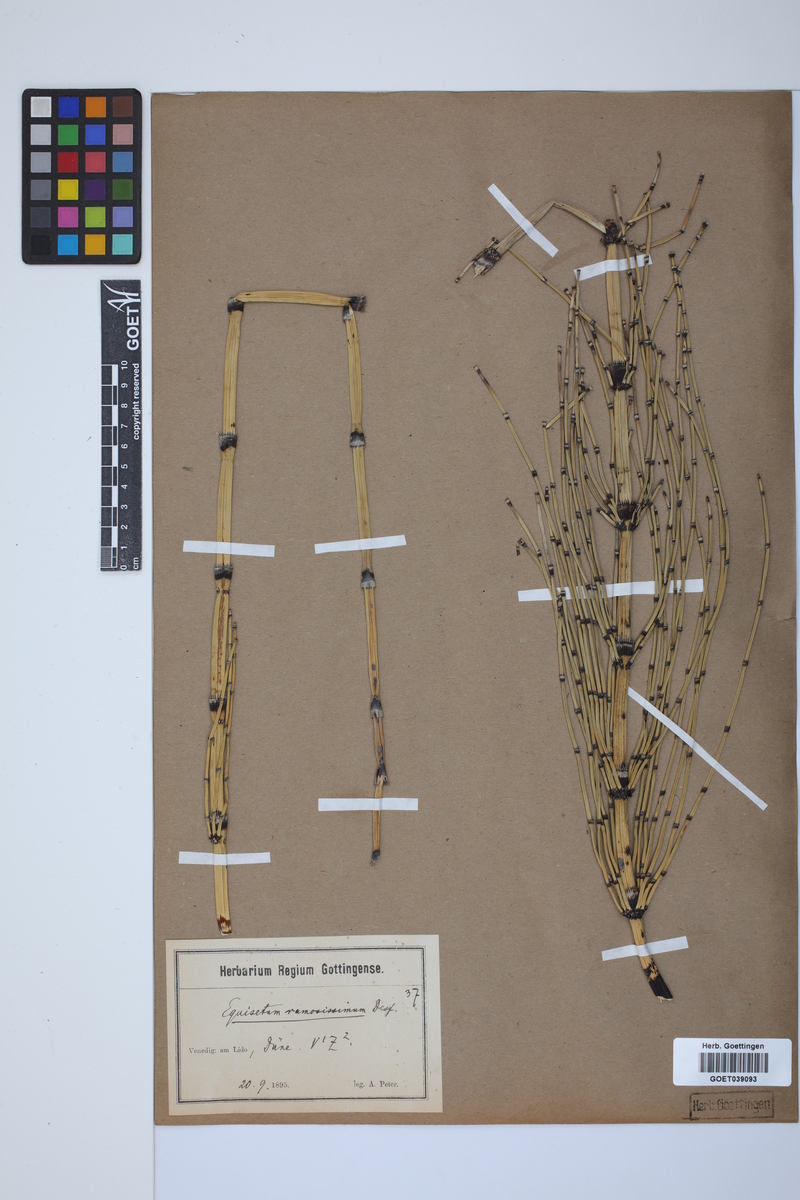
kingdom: Plantae
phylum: Tracheophyta
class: Polypodiopsida
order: Equisetales
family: Equisetaceae
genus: Equisetum
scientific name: Equisetum giganteum
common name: Giant horsetail
